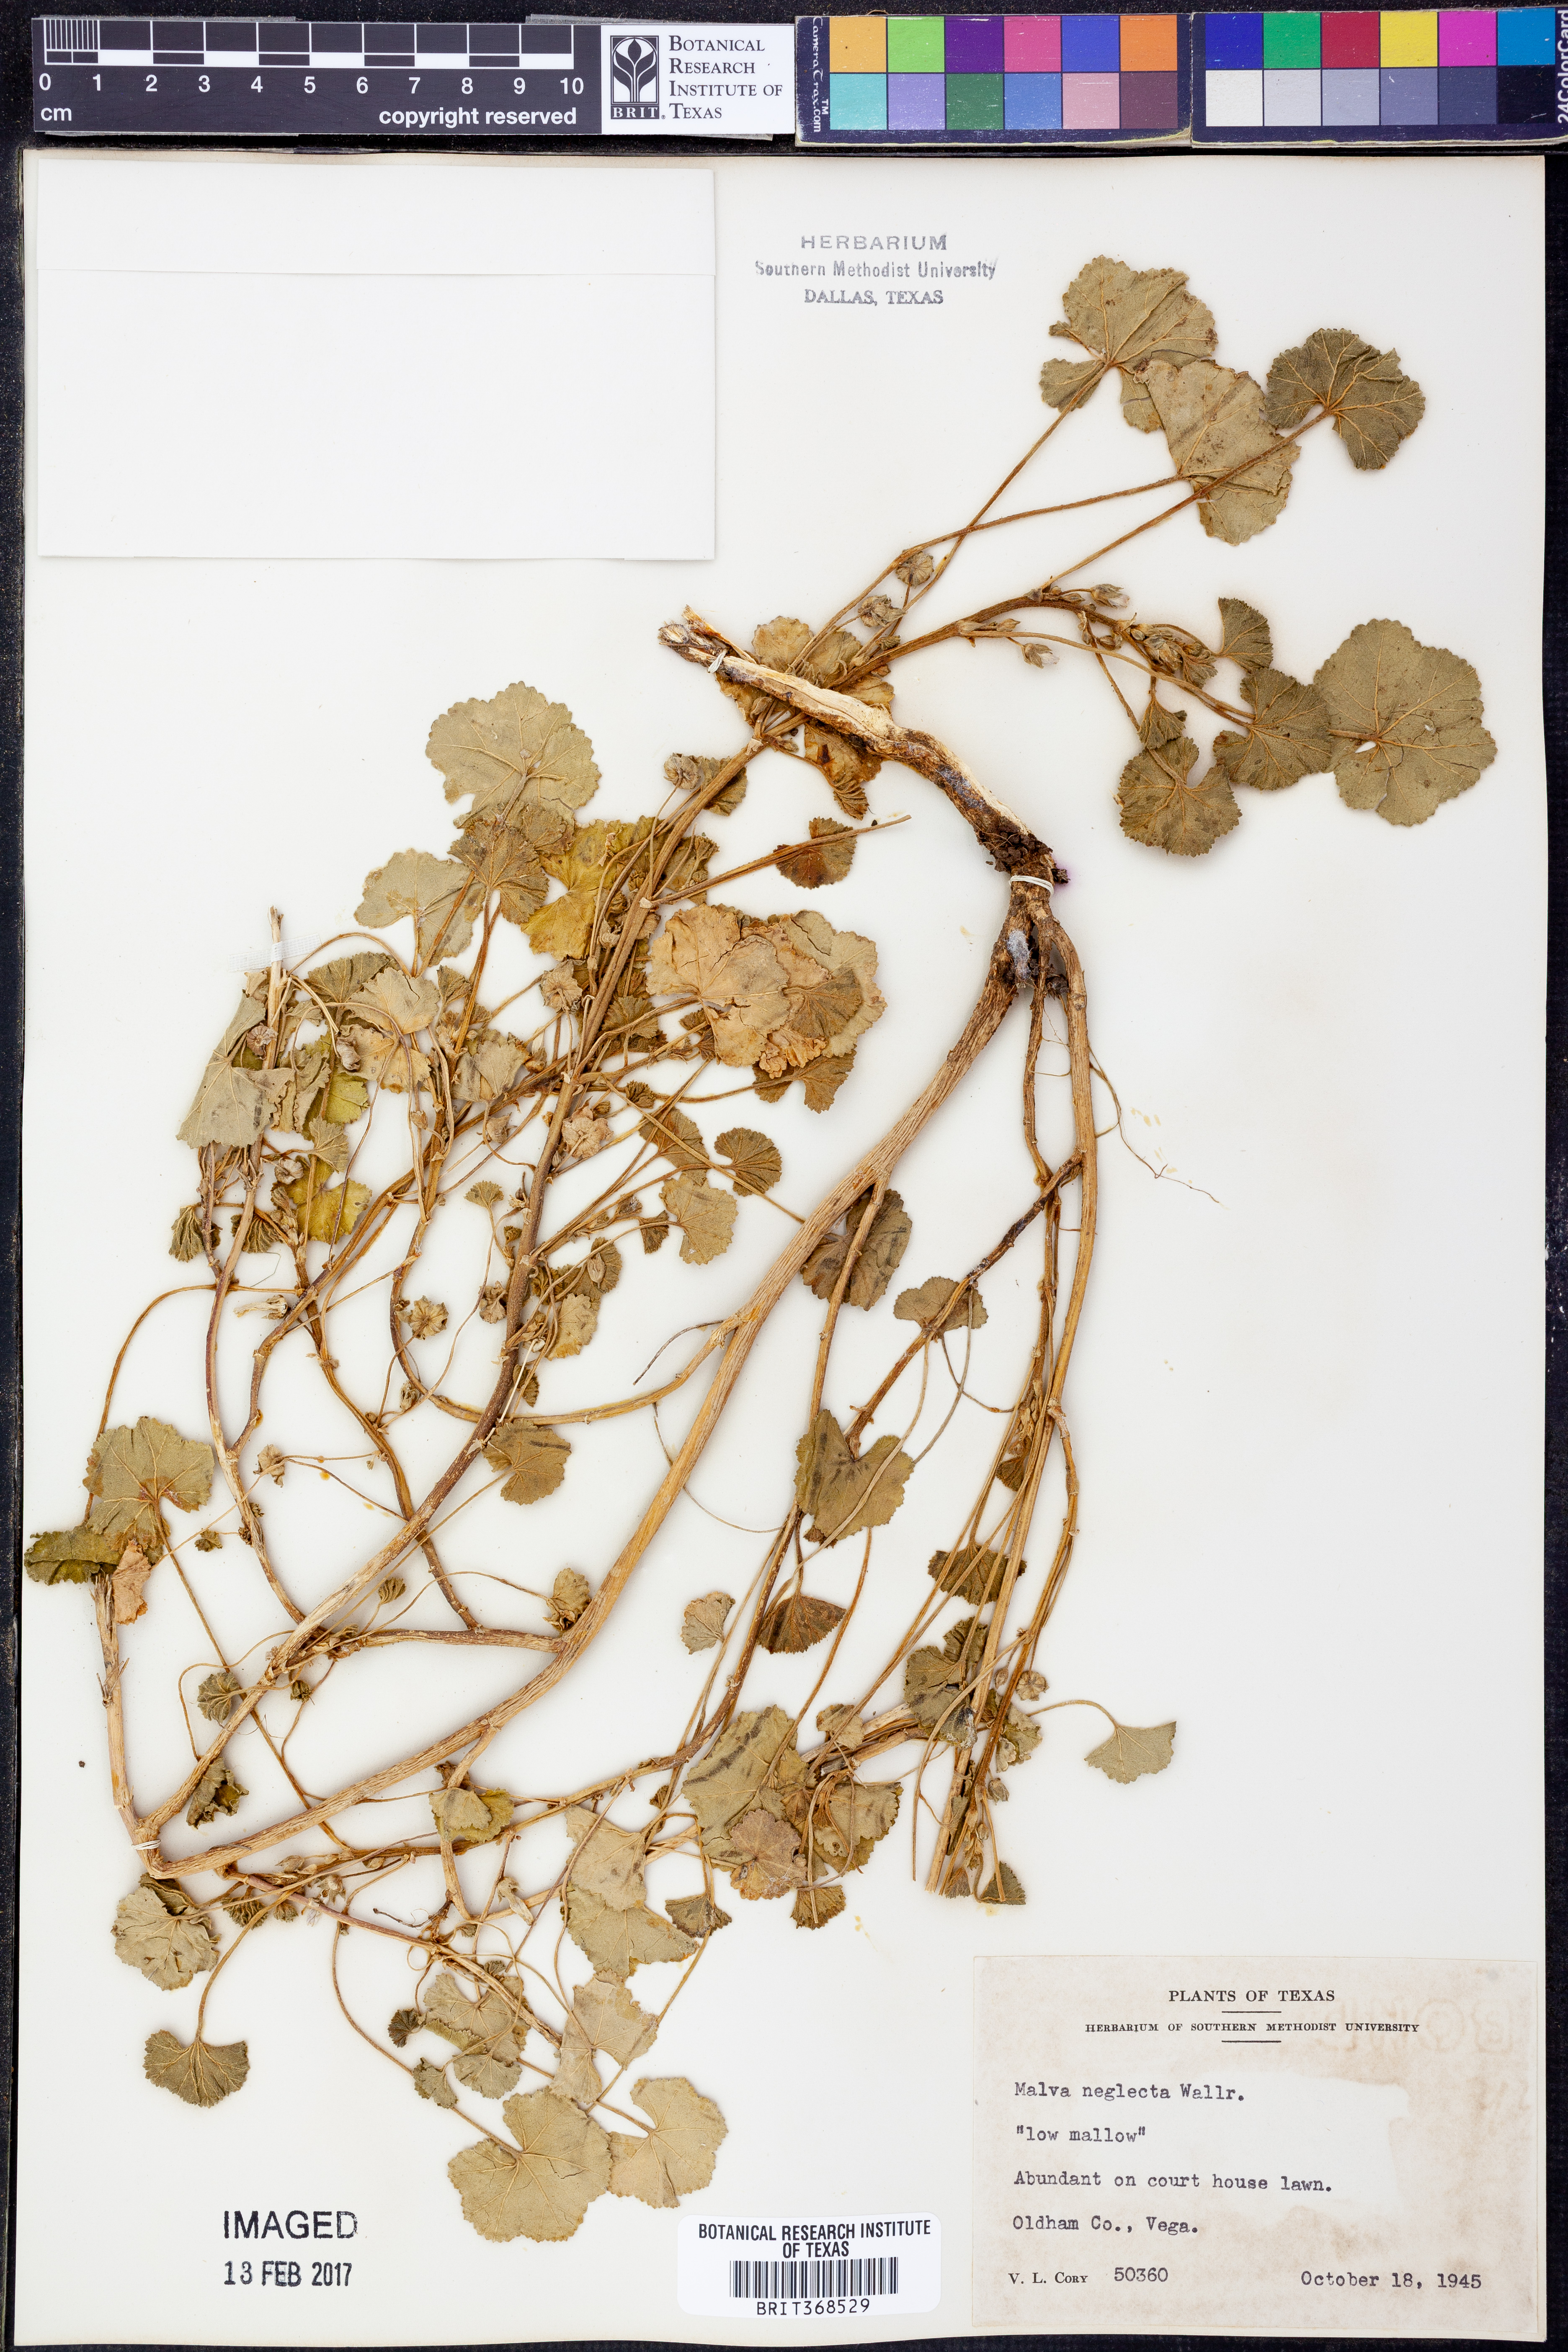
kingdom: Plantae
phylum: Tracheophyta
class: Magnoliopsida
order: Malvales
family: Malvaceae
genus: Malva
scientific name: Malva neglecta
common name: Common mallow
